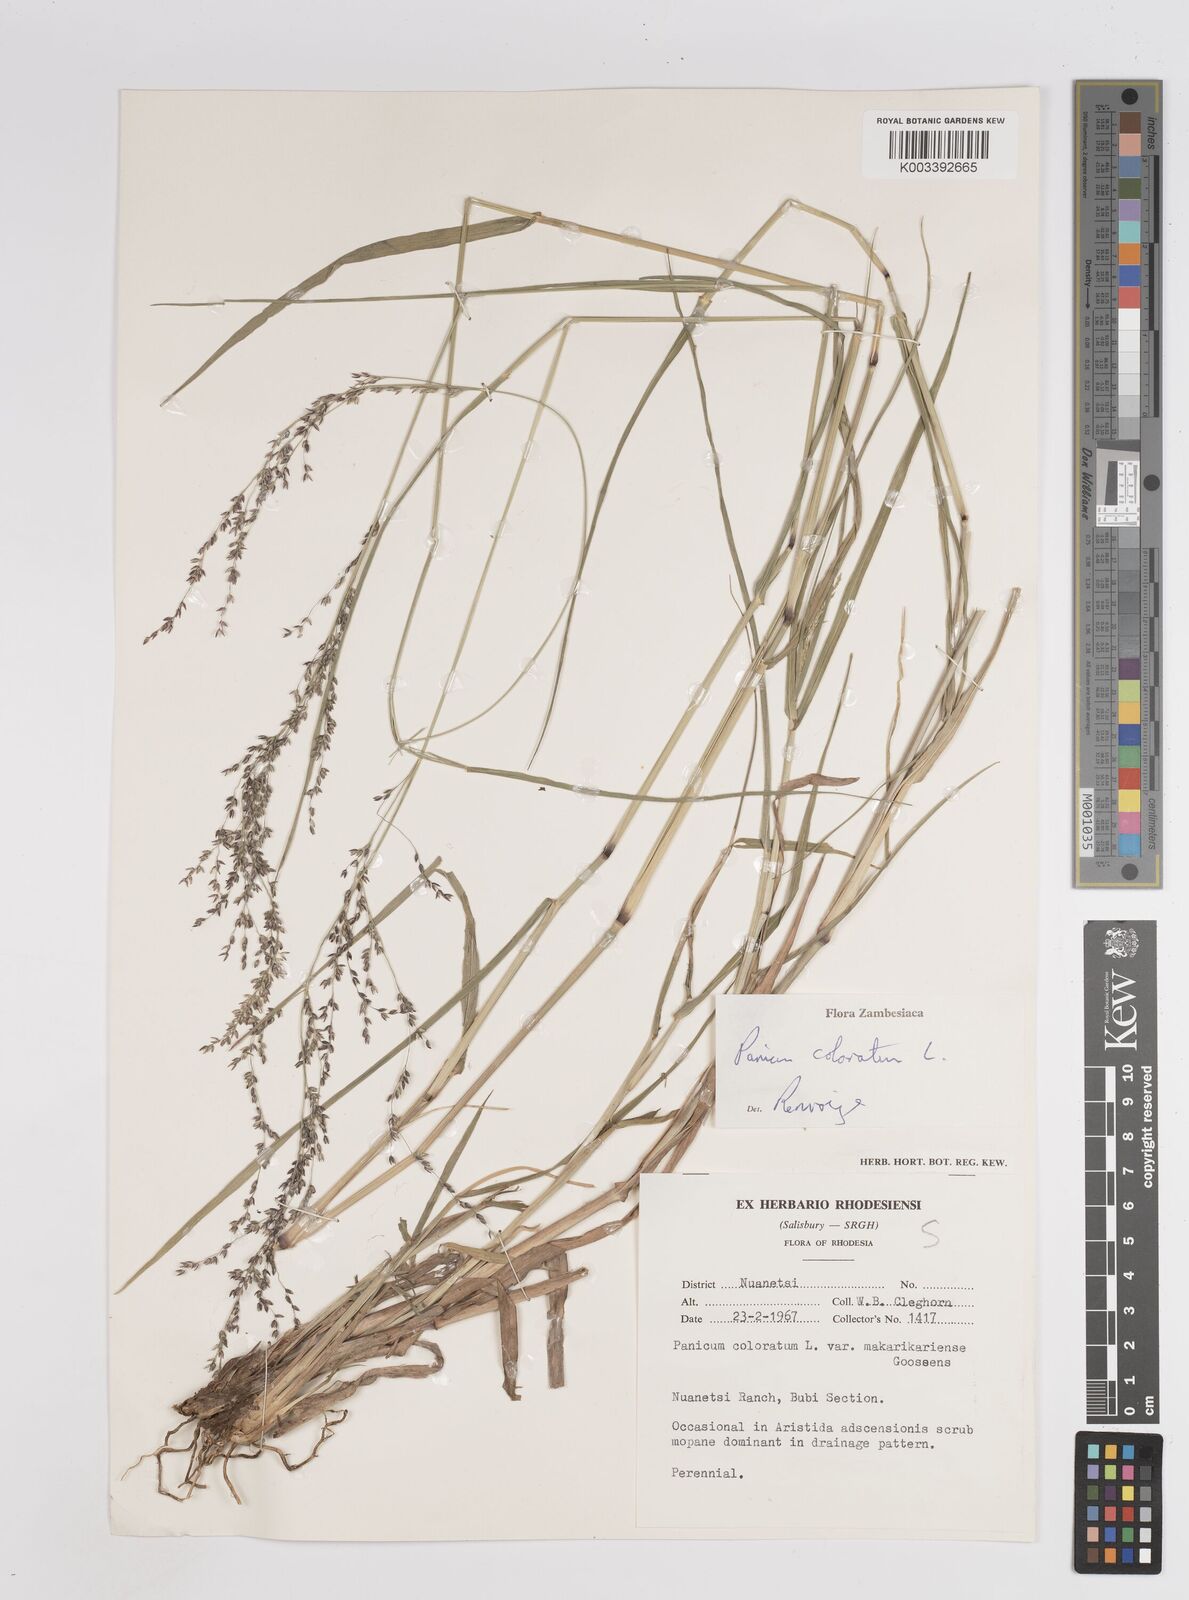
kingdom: Plantae
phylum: Tracheophyta
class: Liliopsida
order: Poales
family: Poaceae
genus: Panicum
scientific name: Panicum coloratum
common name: Kleingrass
